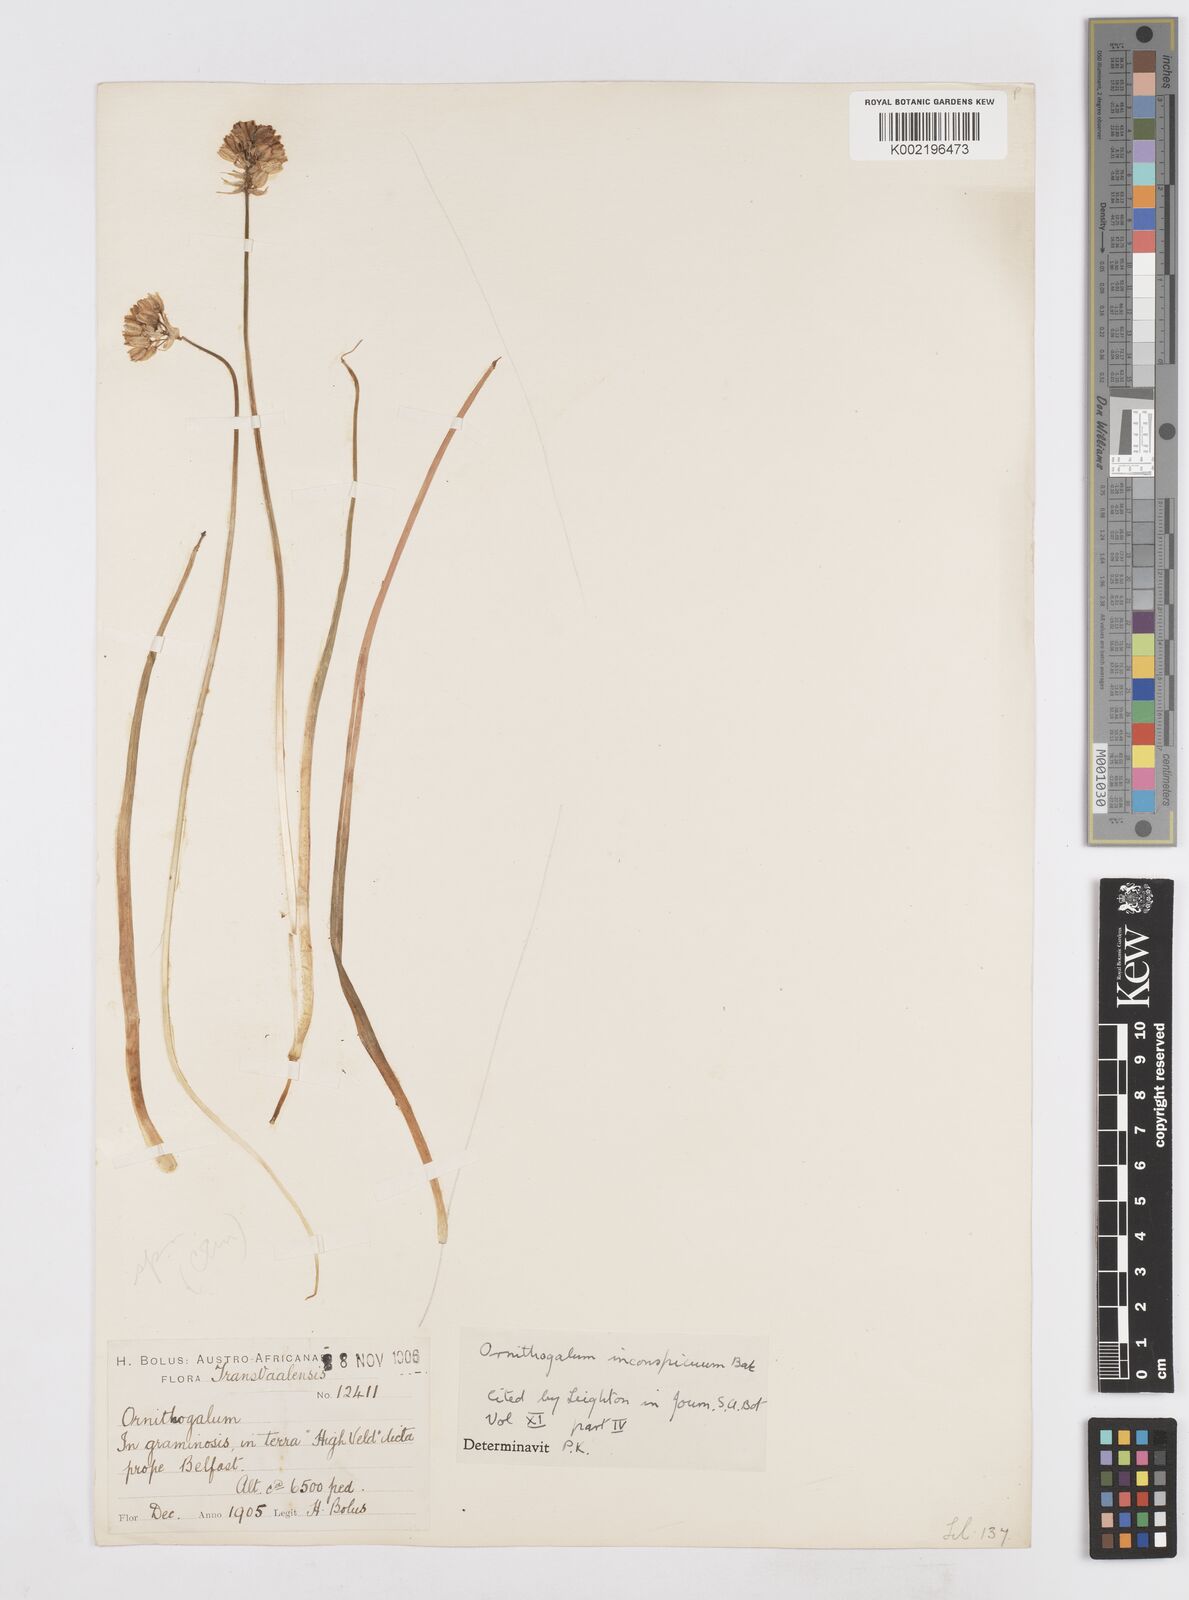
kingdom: Plantae
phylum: Tracheophyta
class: Liliopsida
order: Asparagales
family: Asparagaceae
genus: Albuca
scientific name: Albuca virens
